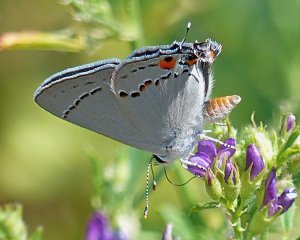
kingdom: Animalia
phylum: Arthropoda
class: Insecta
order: Lepidoptera
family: Lycaenidae
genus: Strymon
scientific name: Strymon melinus
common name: Gray Hairstreak
